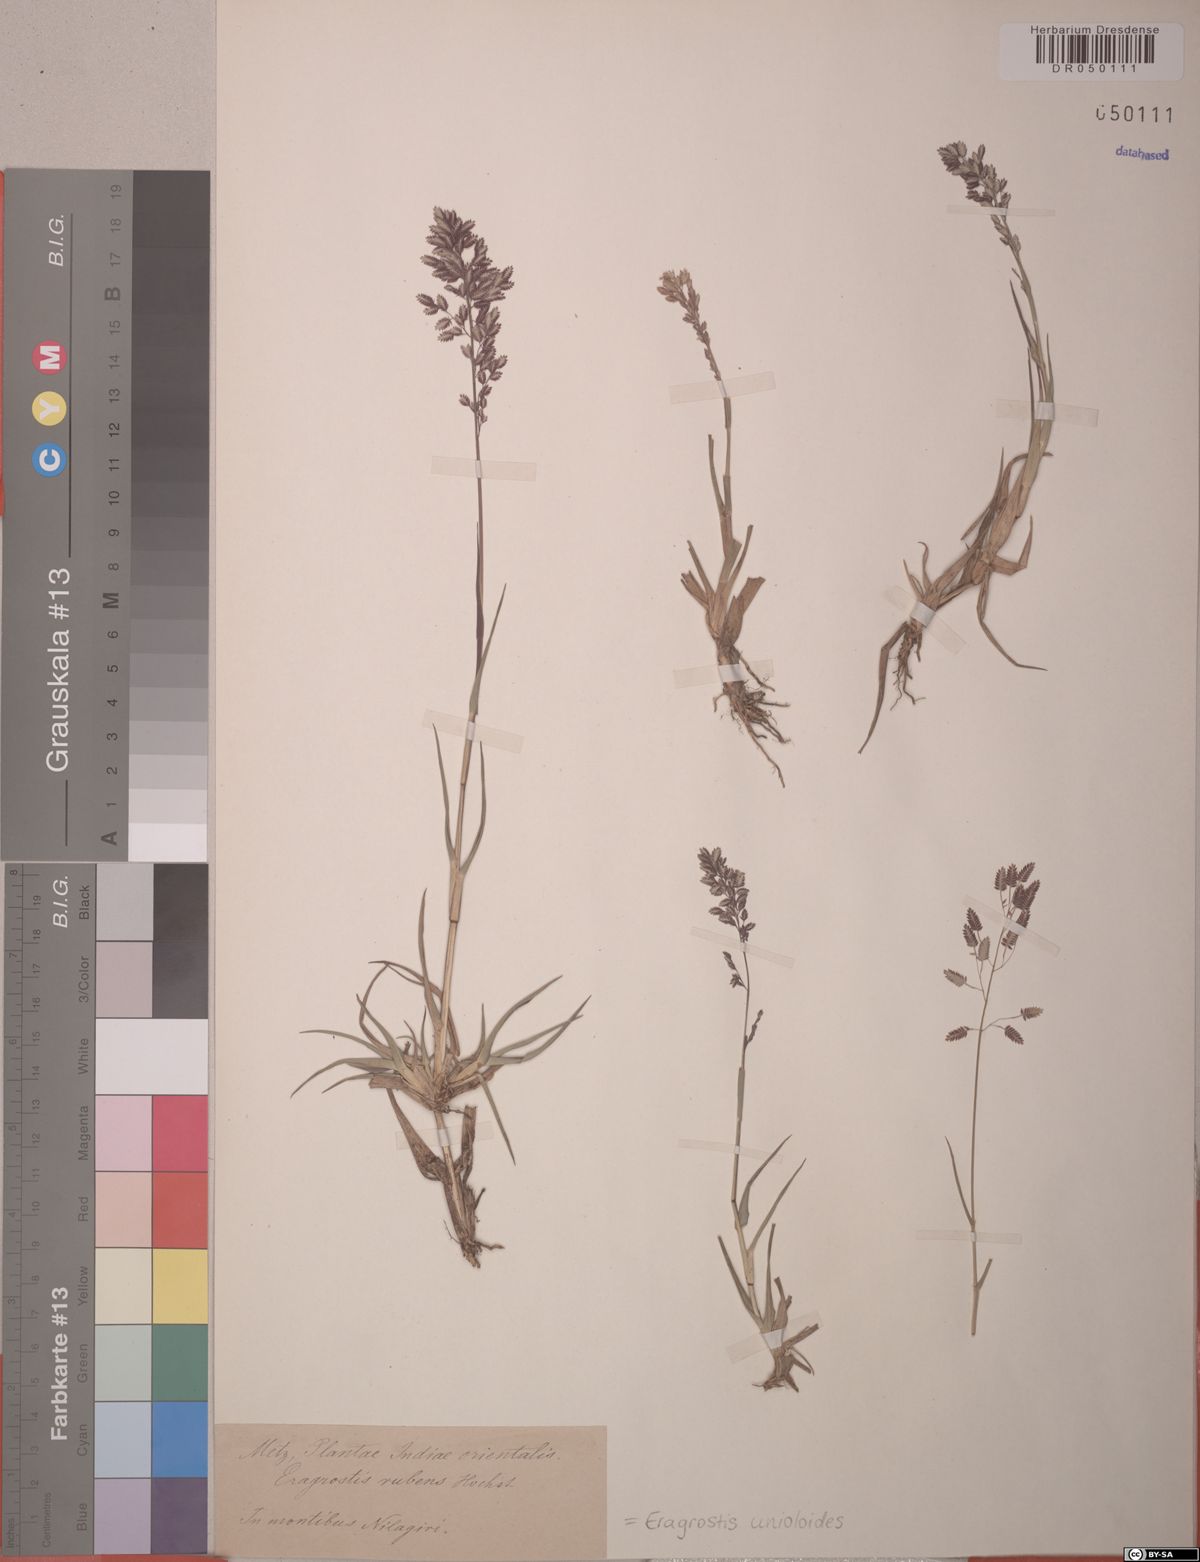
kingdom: Plantae
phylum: Tracheophyta
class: Liliopsida
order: Poales
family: Poaceae
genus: Eragrostis
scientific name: Eragrostis unioloides
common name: Chinese lovegrass
